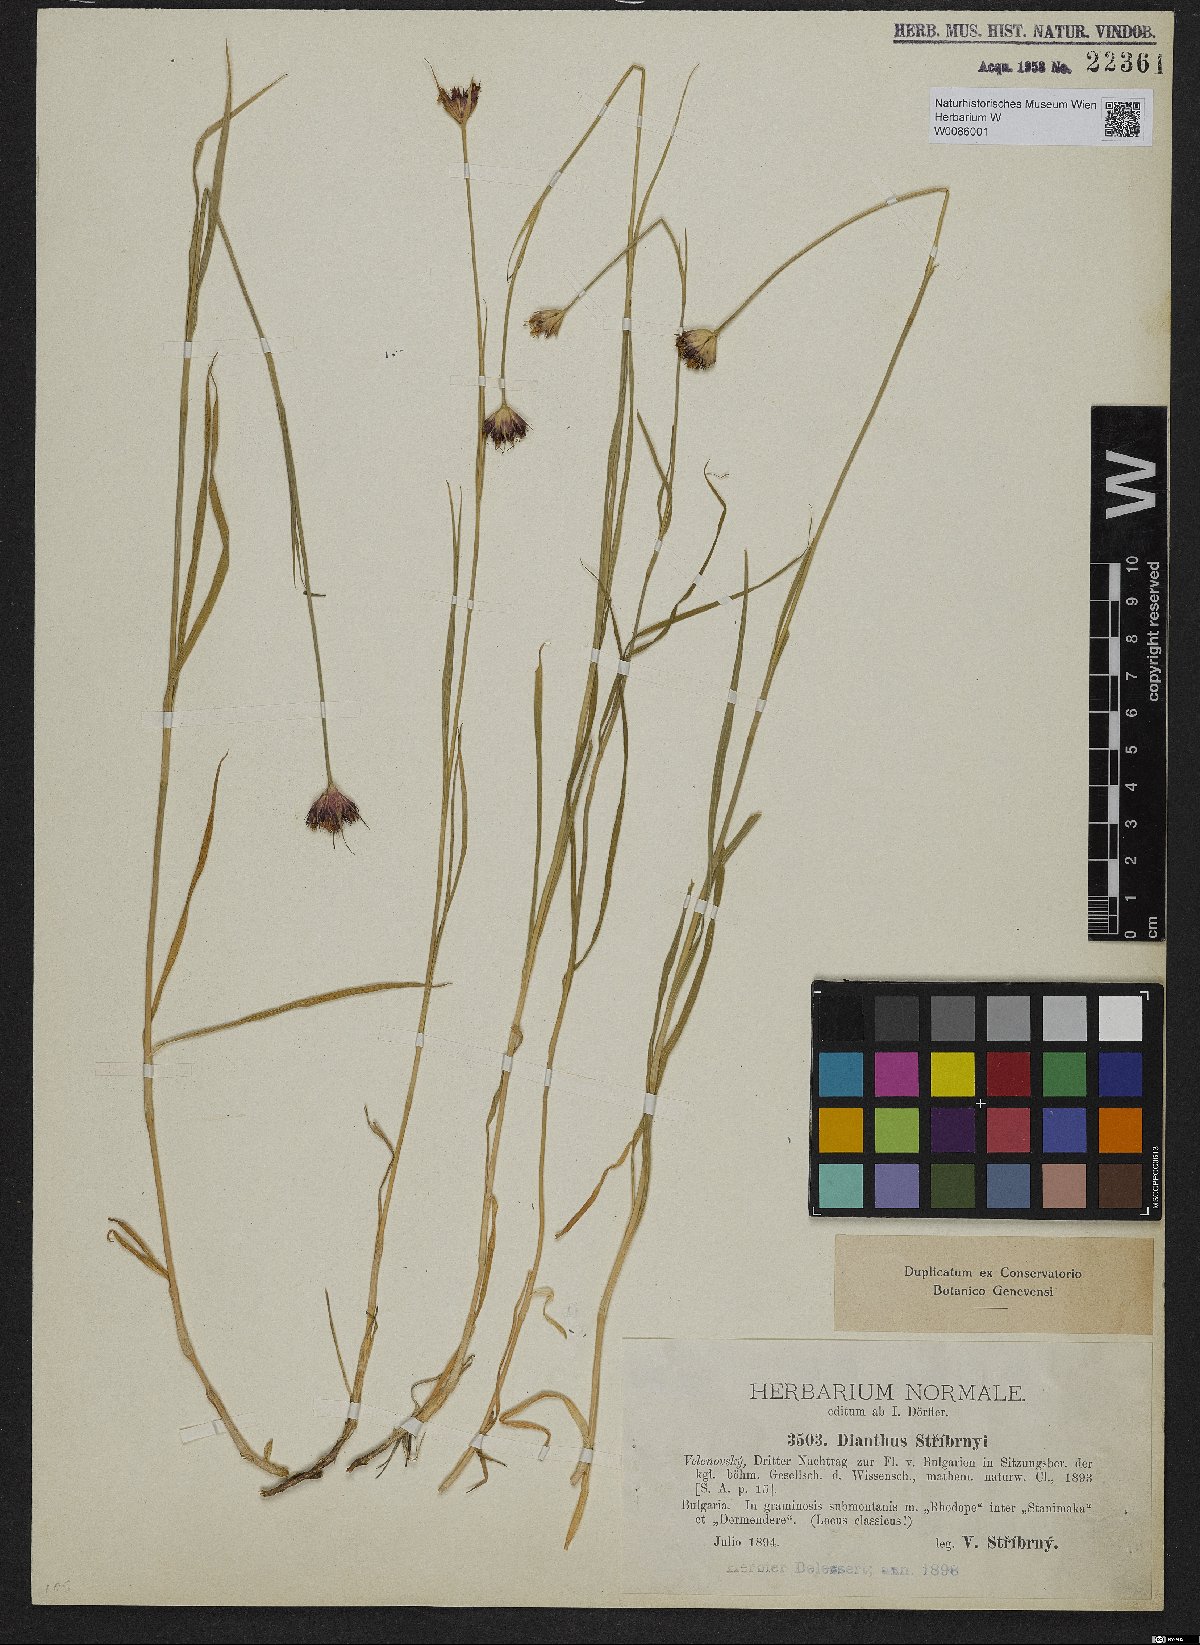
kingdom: Plantae
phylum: Tracheophyta
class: Magnoliopsida
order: Caryophyllales
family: Caryophyllaceae
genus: Dianthus
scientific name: Dianthus stribrnyi
